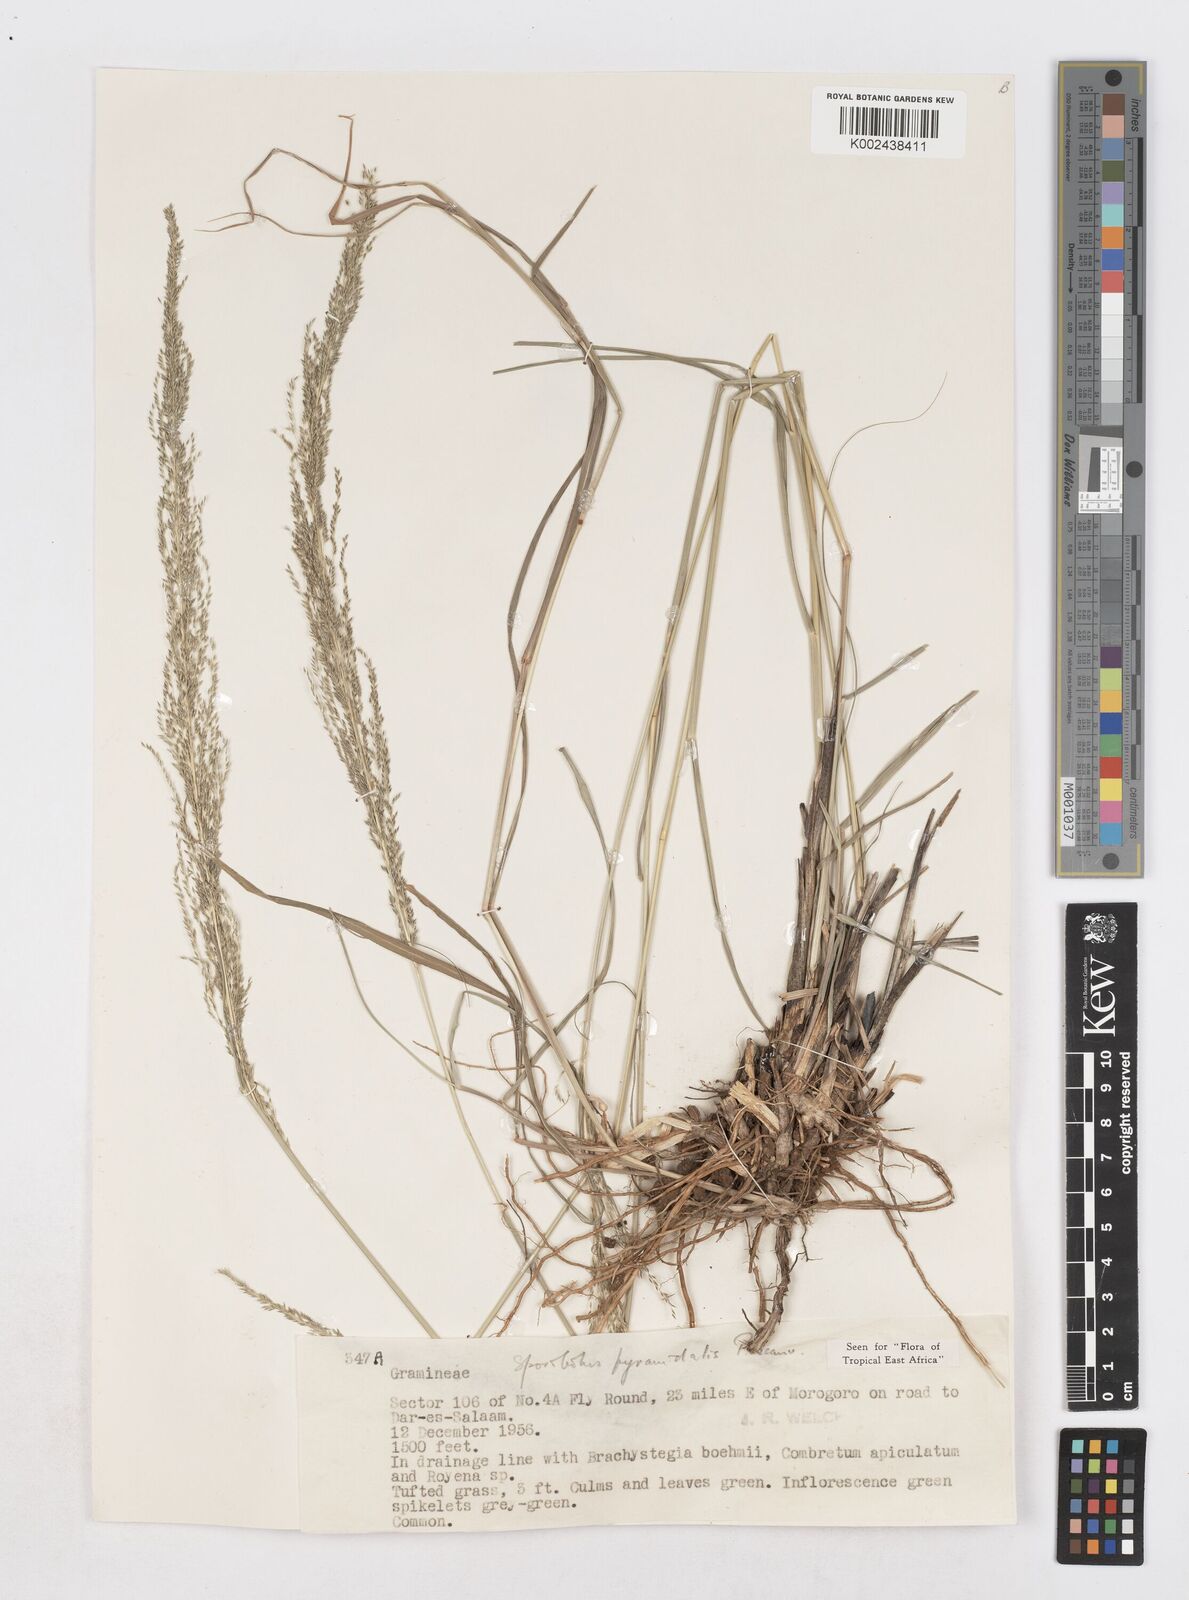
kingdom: Plantae
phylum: Tracheophyta
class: Liliopsida
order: Poales
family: Poaceae
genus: Sporobolus
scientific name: Sporobolus pyramidalis
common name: West indian dropseed
